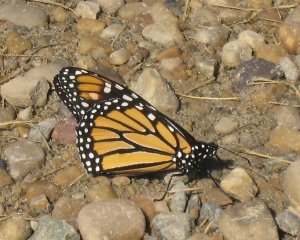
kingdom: Animalia
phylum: Arthropoda
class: Insecta
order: Lepidoptera
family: Nymphalidae
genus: Danaus
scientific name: Danaus plexippus
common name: Monarch
